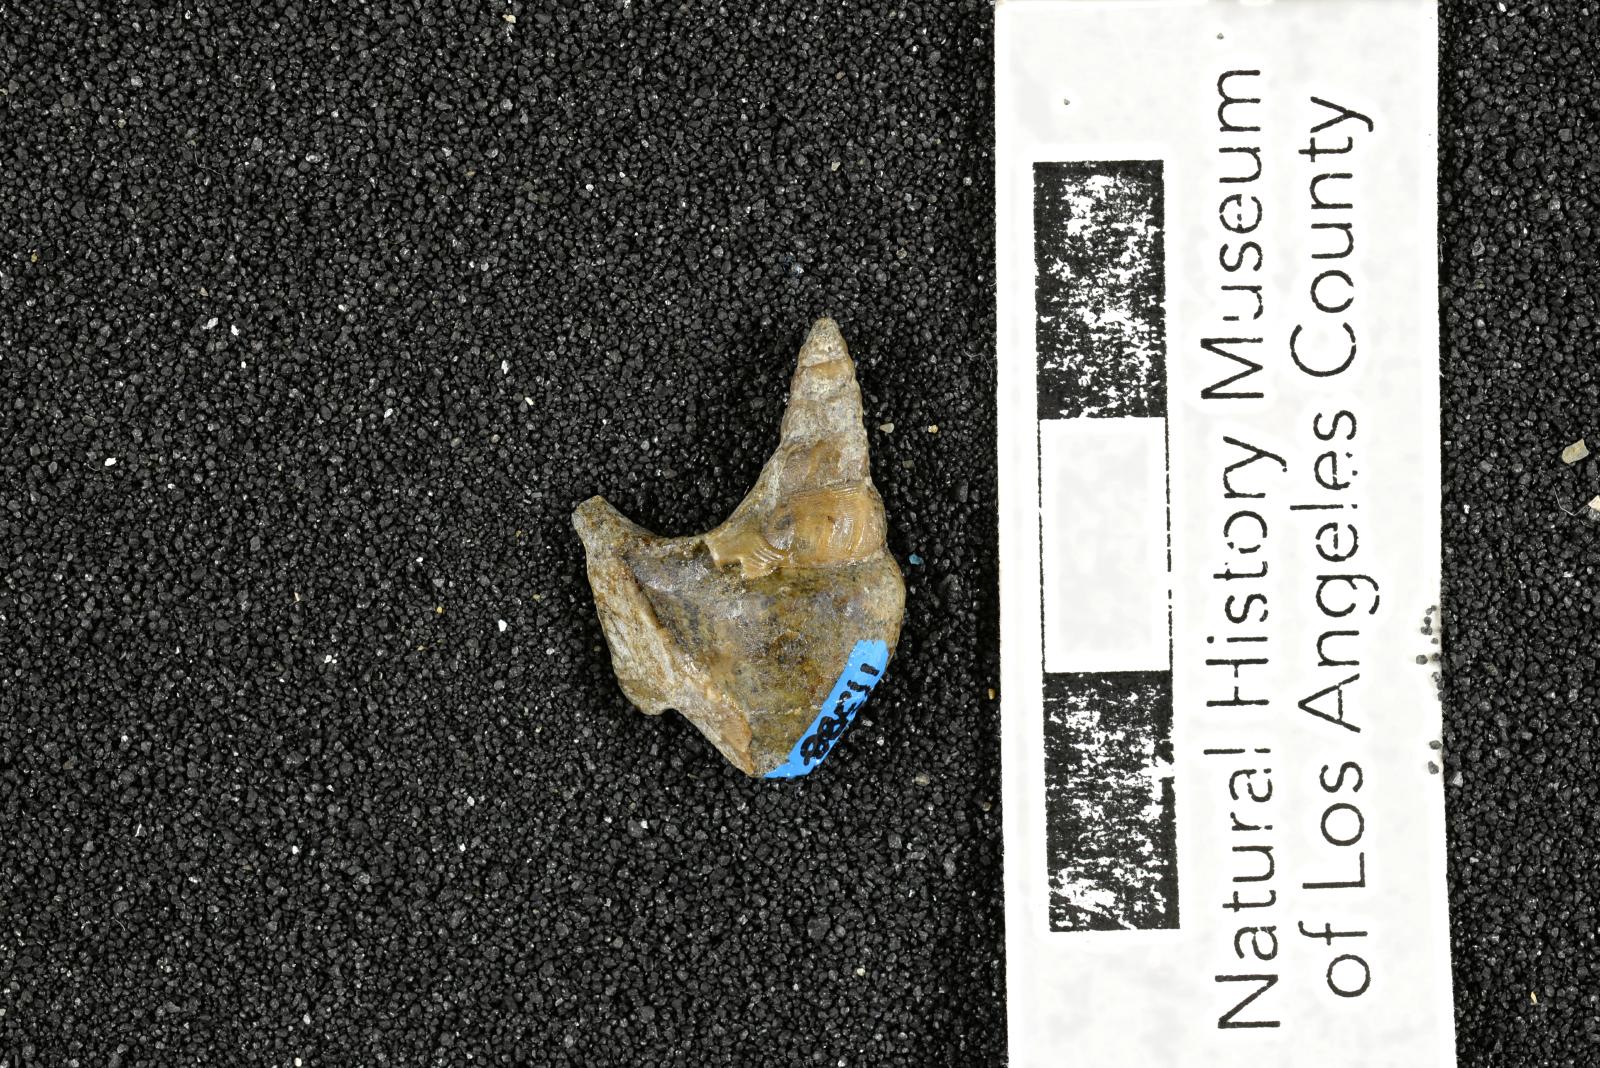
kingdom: Animalia
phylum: Mollusca
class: Gastropoda
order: Littorinimorpha
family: Aporrhaidae
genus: Latiala
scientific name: Latiala Aporrhais californica
